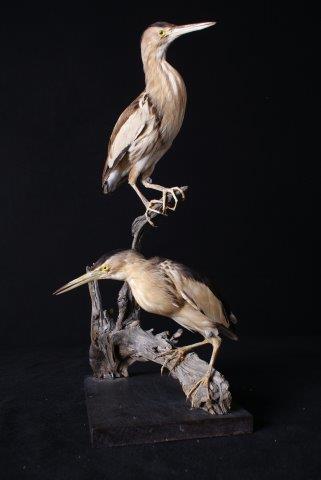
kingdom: Animalia
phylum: Chordata
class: Aves
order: Pelecaniformes
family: Ardeidae
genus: Ixobrychus
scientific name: Ixobrychus minutus
